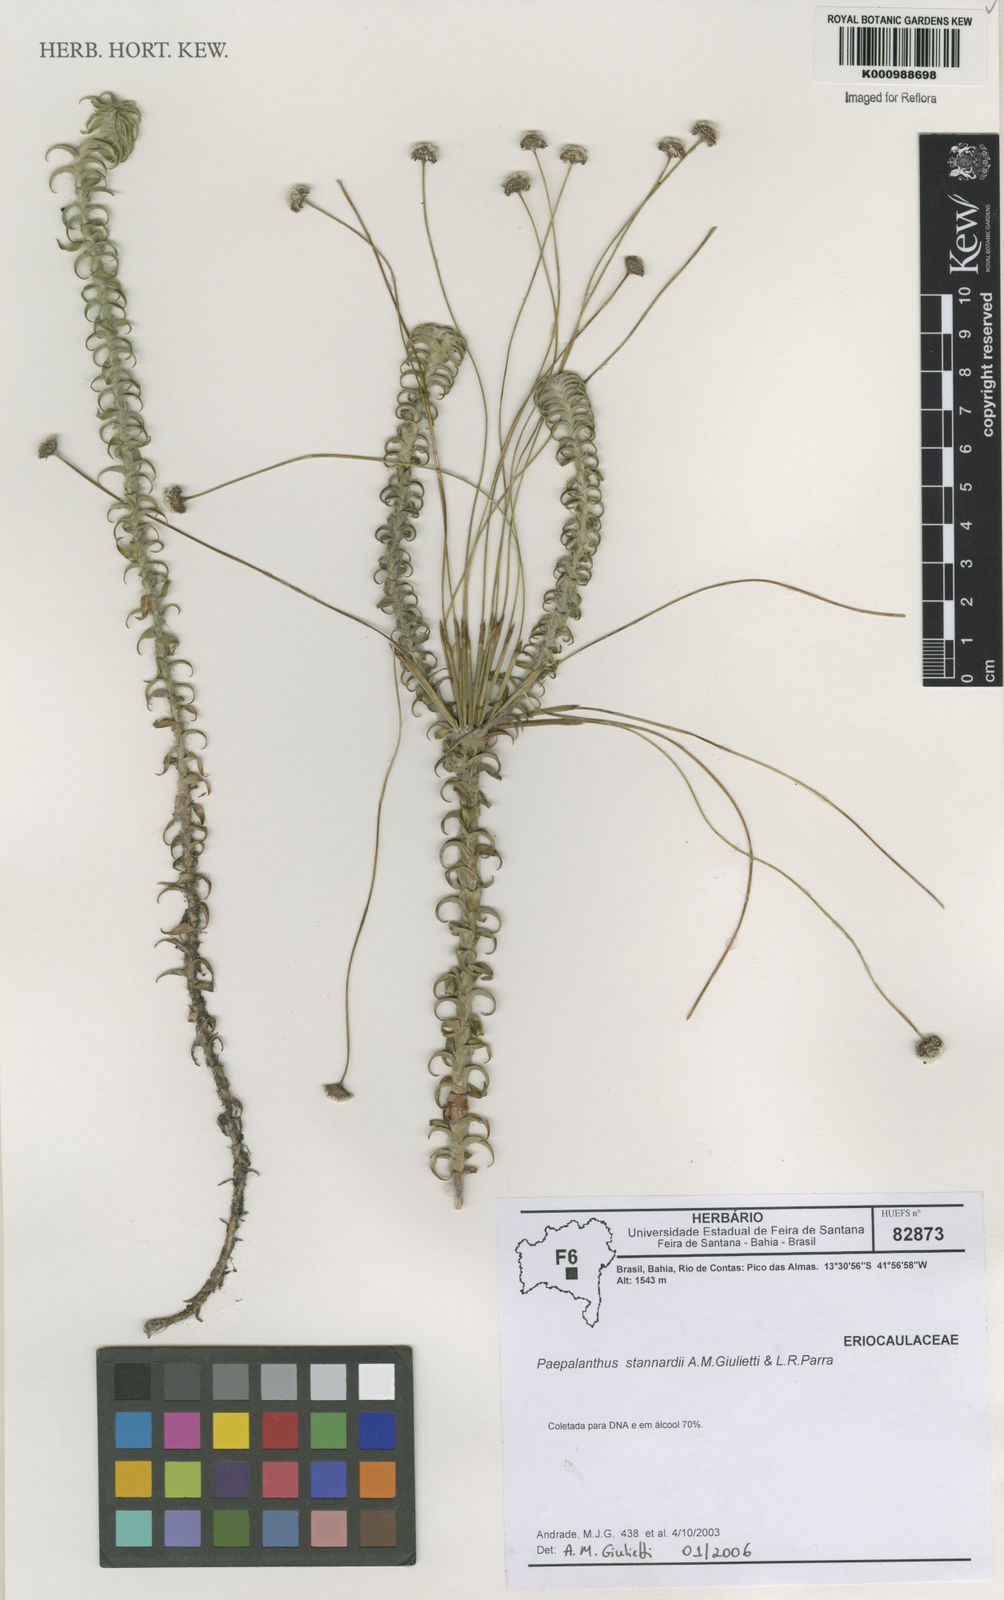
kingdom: Plantae
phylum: Tracheophyta
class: Liliopsida
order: Poales
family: Eriocaulaceae
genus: Paepalanthus
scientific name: Paepalanthus stannardii
